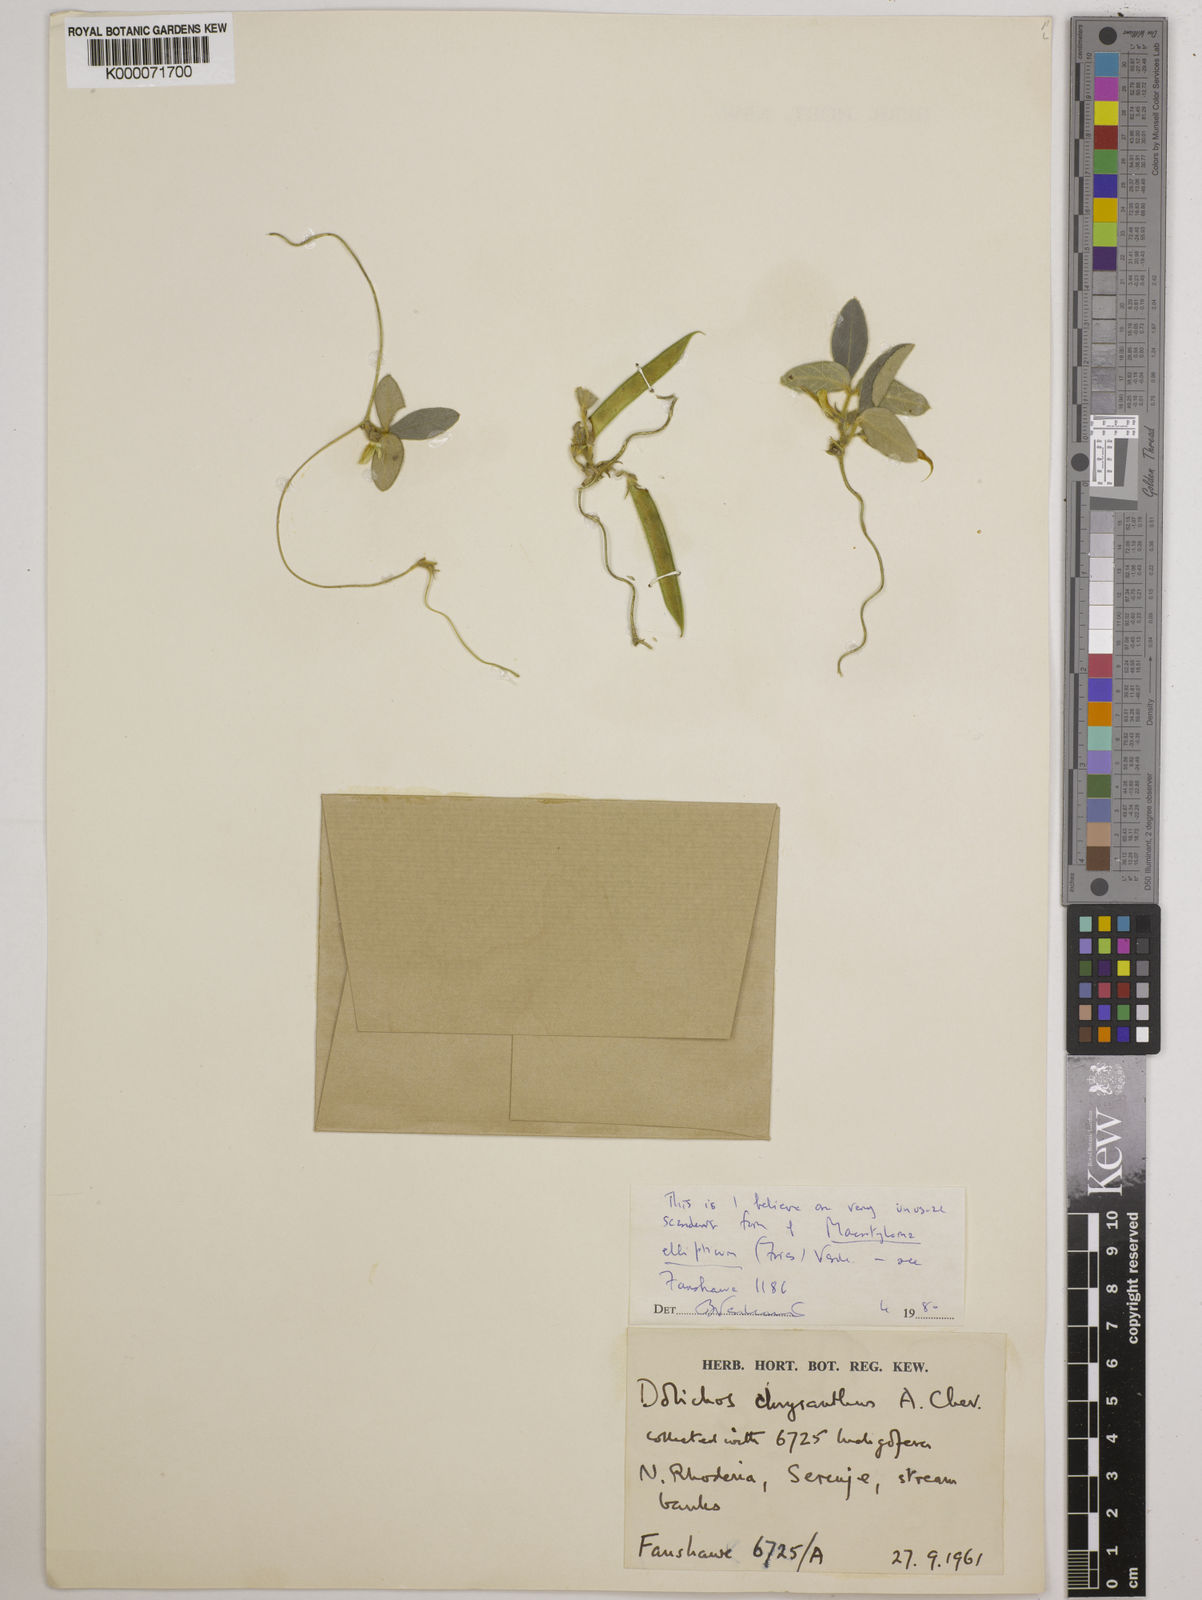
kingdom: Plantae
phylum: Tracheophyta
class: Magnoliopsida
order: Fabales
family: Fabaceae
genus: Macrotyloma
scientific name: Macrotyloma ellipticum
